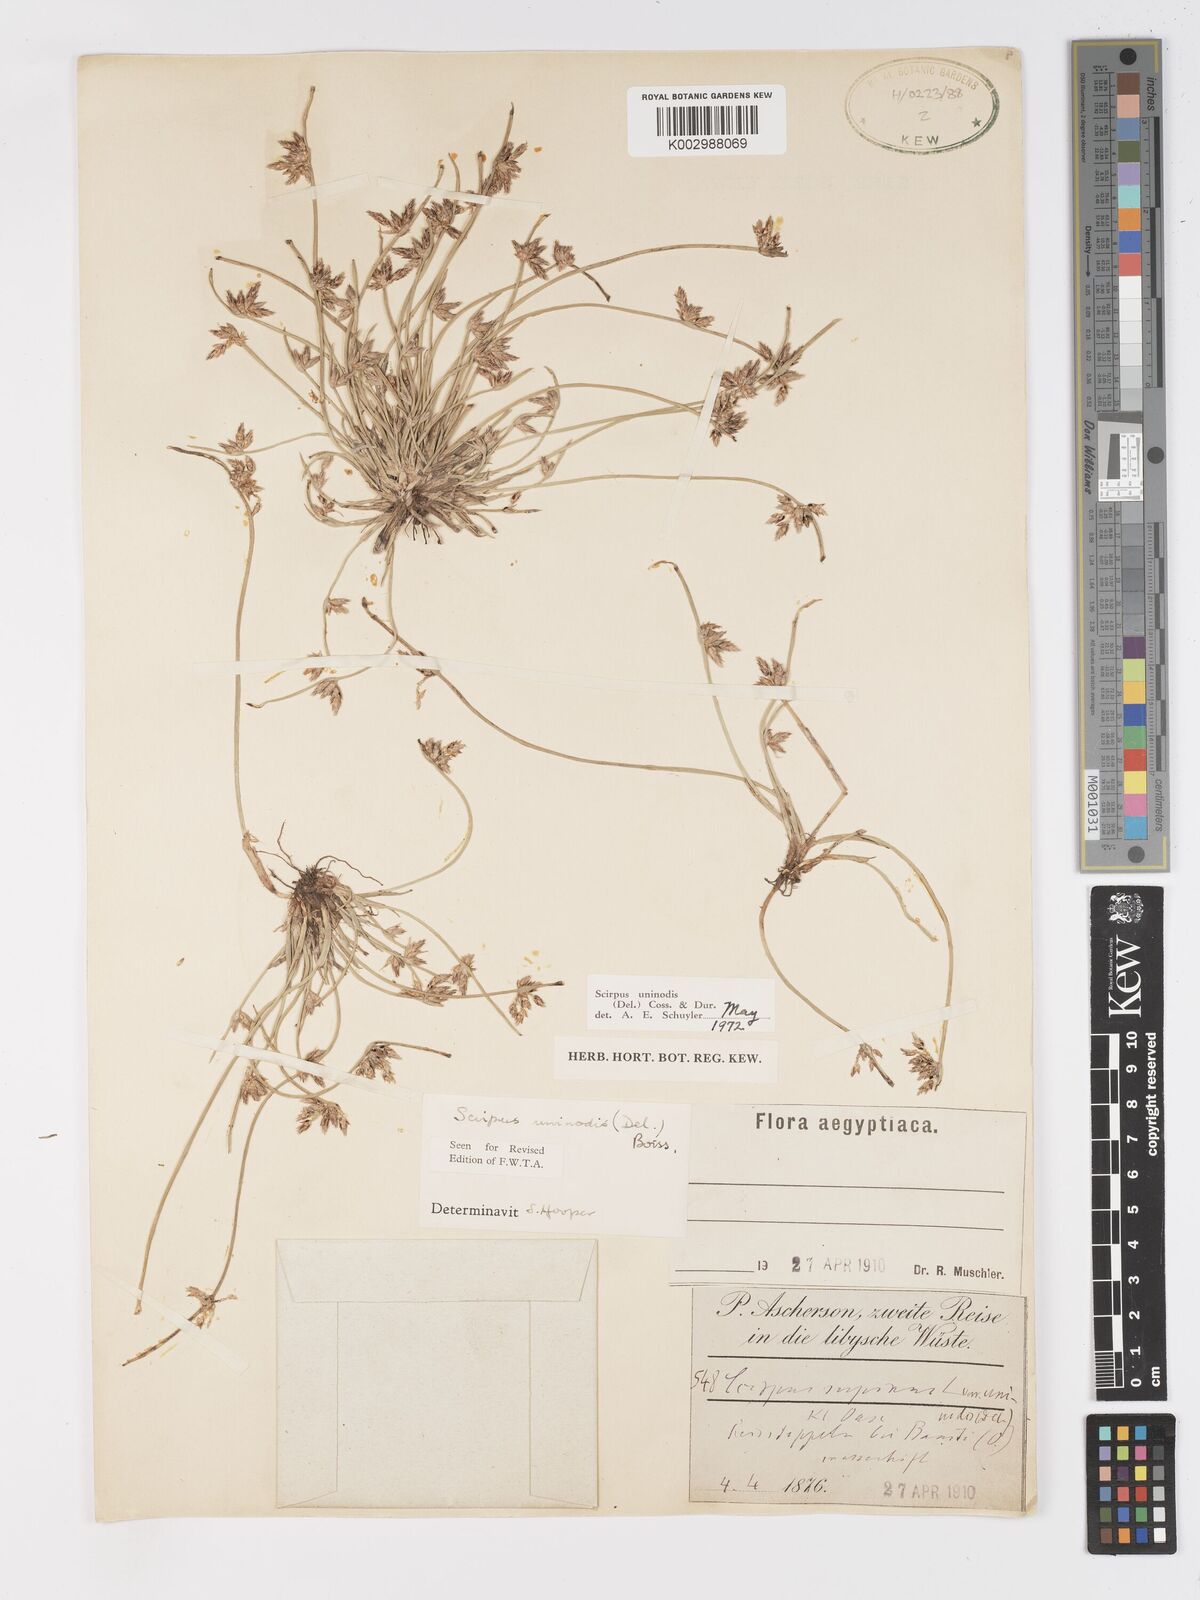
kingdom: Plantae
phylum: Tracheophyta
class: Liliopsida
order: Poales
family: Cyperaceae
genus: Schoenoplectus
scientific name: Schoenoplectus
